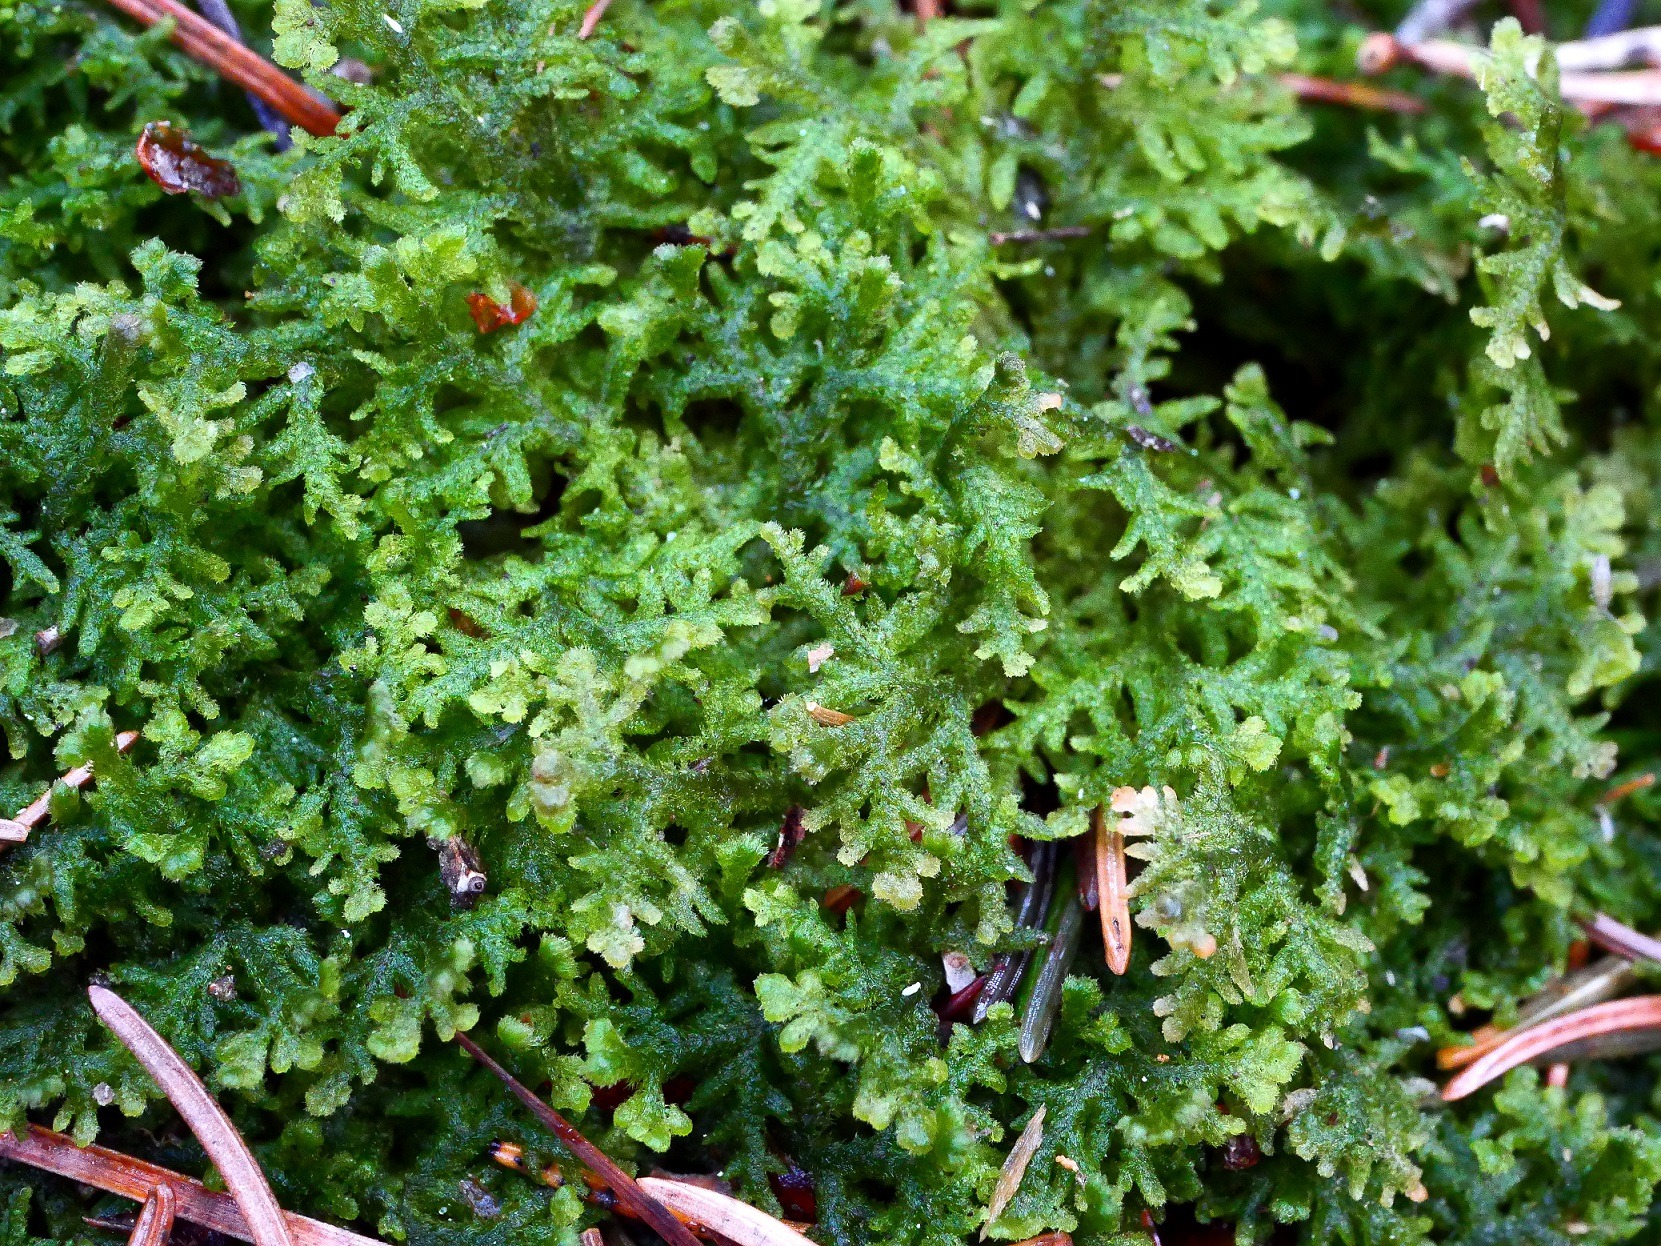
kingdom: Plantae
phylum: Marchantiophyta
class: Jungermanniopsida
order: Jungermanniales
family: Trichocoleaceae
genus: Trichocolea
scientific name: Trichocolea tomentella
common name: Bleg dunmos
